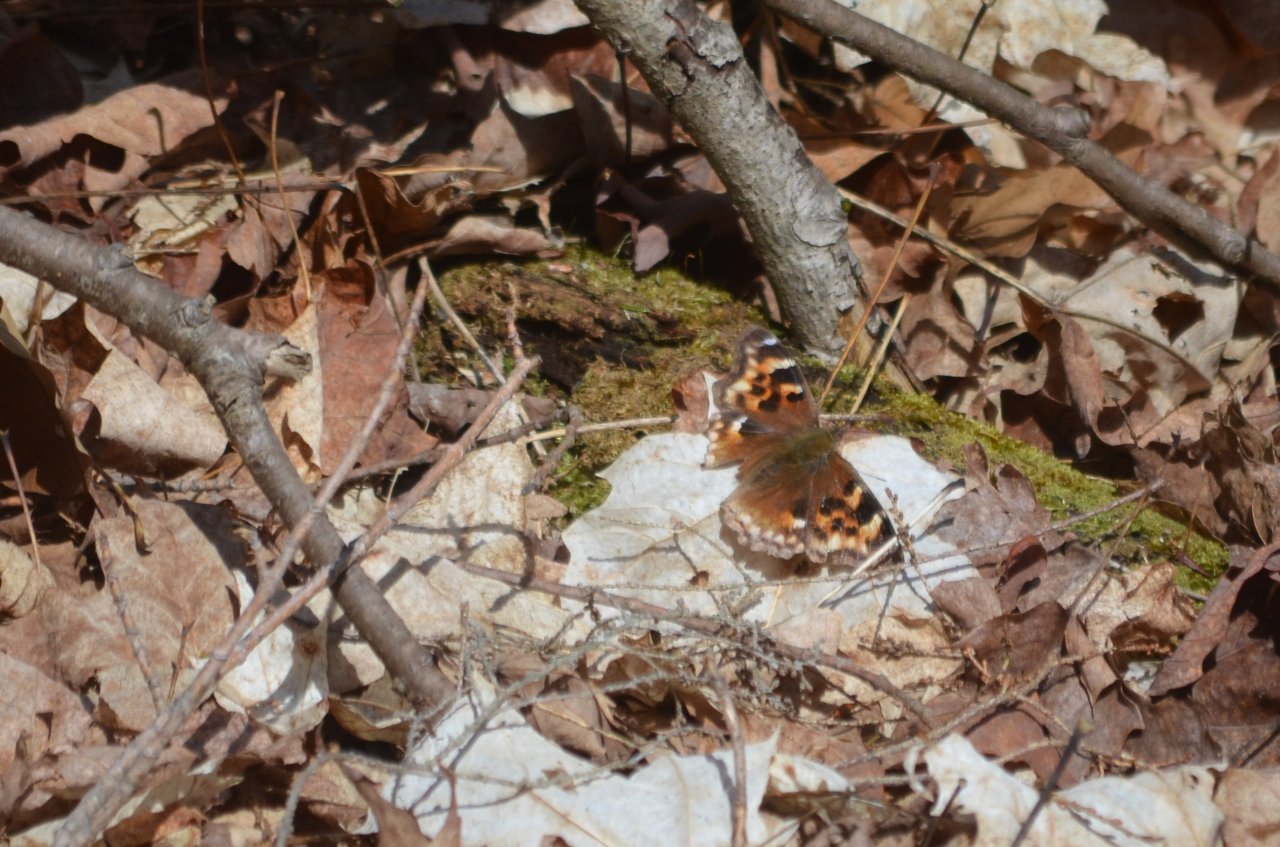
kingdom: Animalia
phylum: Arthropoda
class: Insecta
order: Lepidoptera
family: Nymphalidae
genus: Polygonia
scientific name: Polygonia vaualbum
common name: Compton Tortoiseshell
